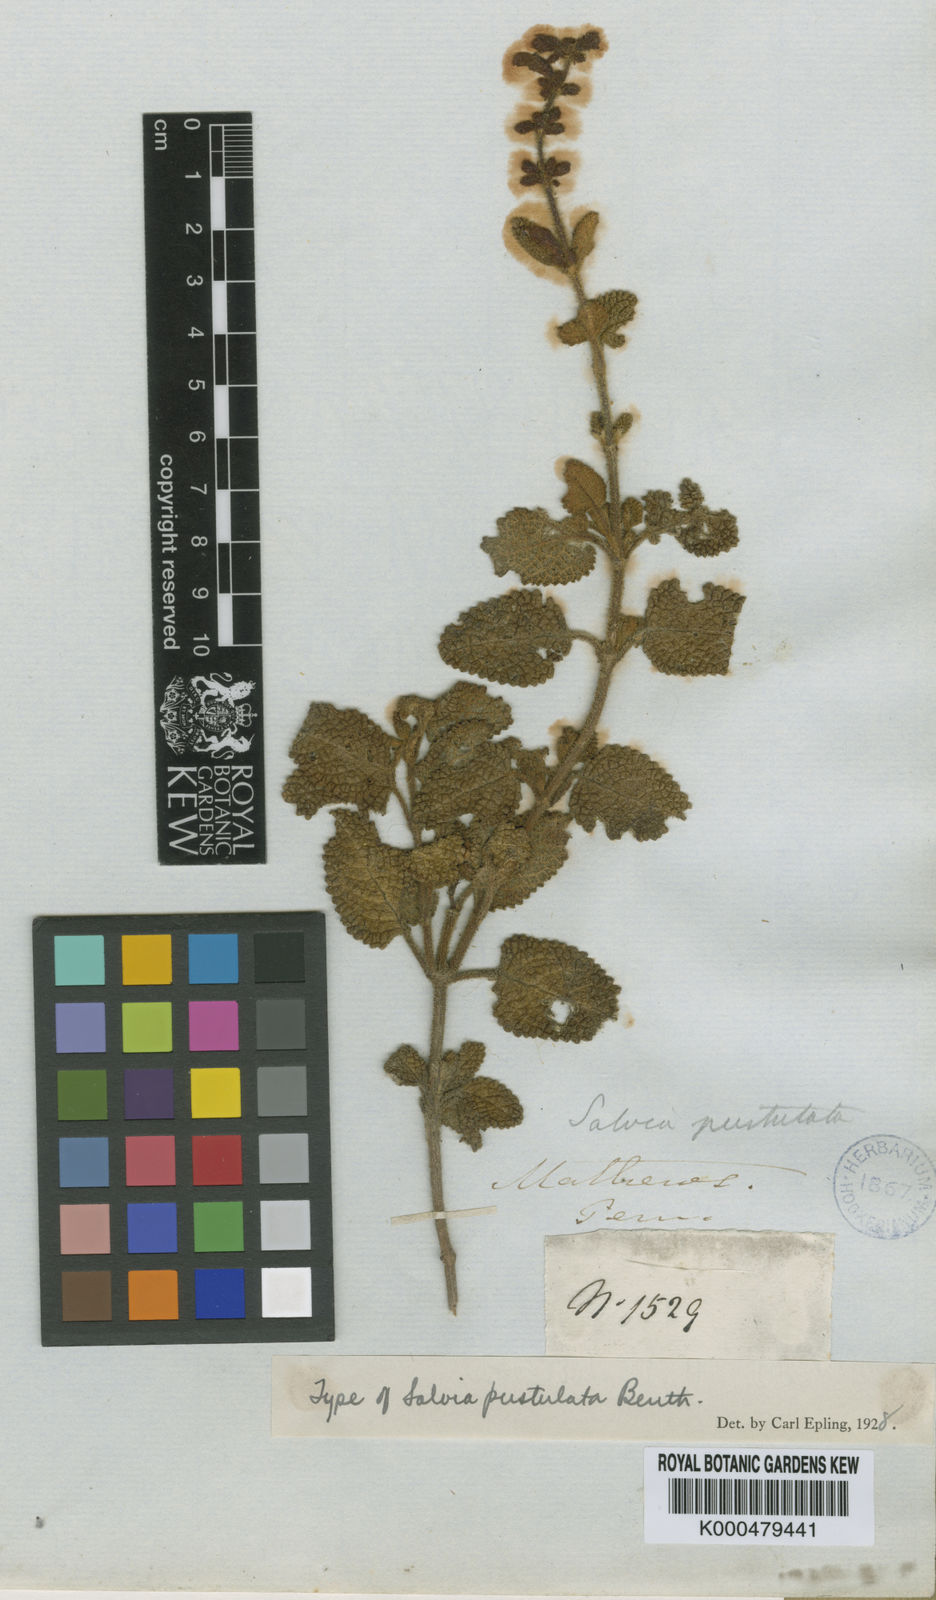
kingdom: Plantae
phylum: Tracheophyta
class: Magnoliopsida
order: Lamiales
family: Lamiaceae
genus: Salvia
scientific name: Salvia bullulata
